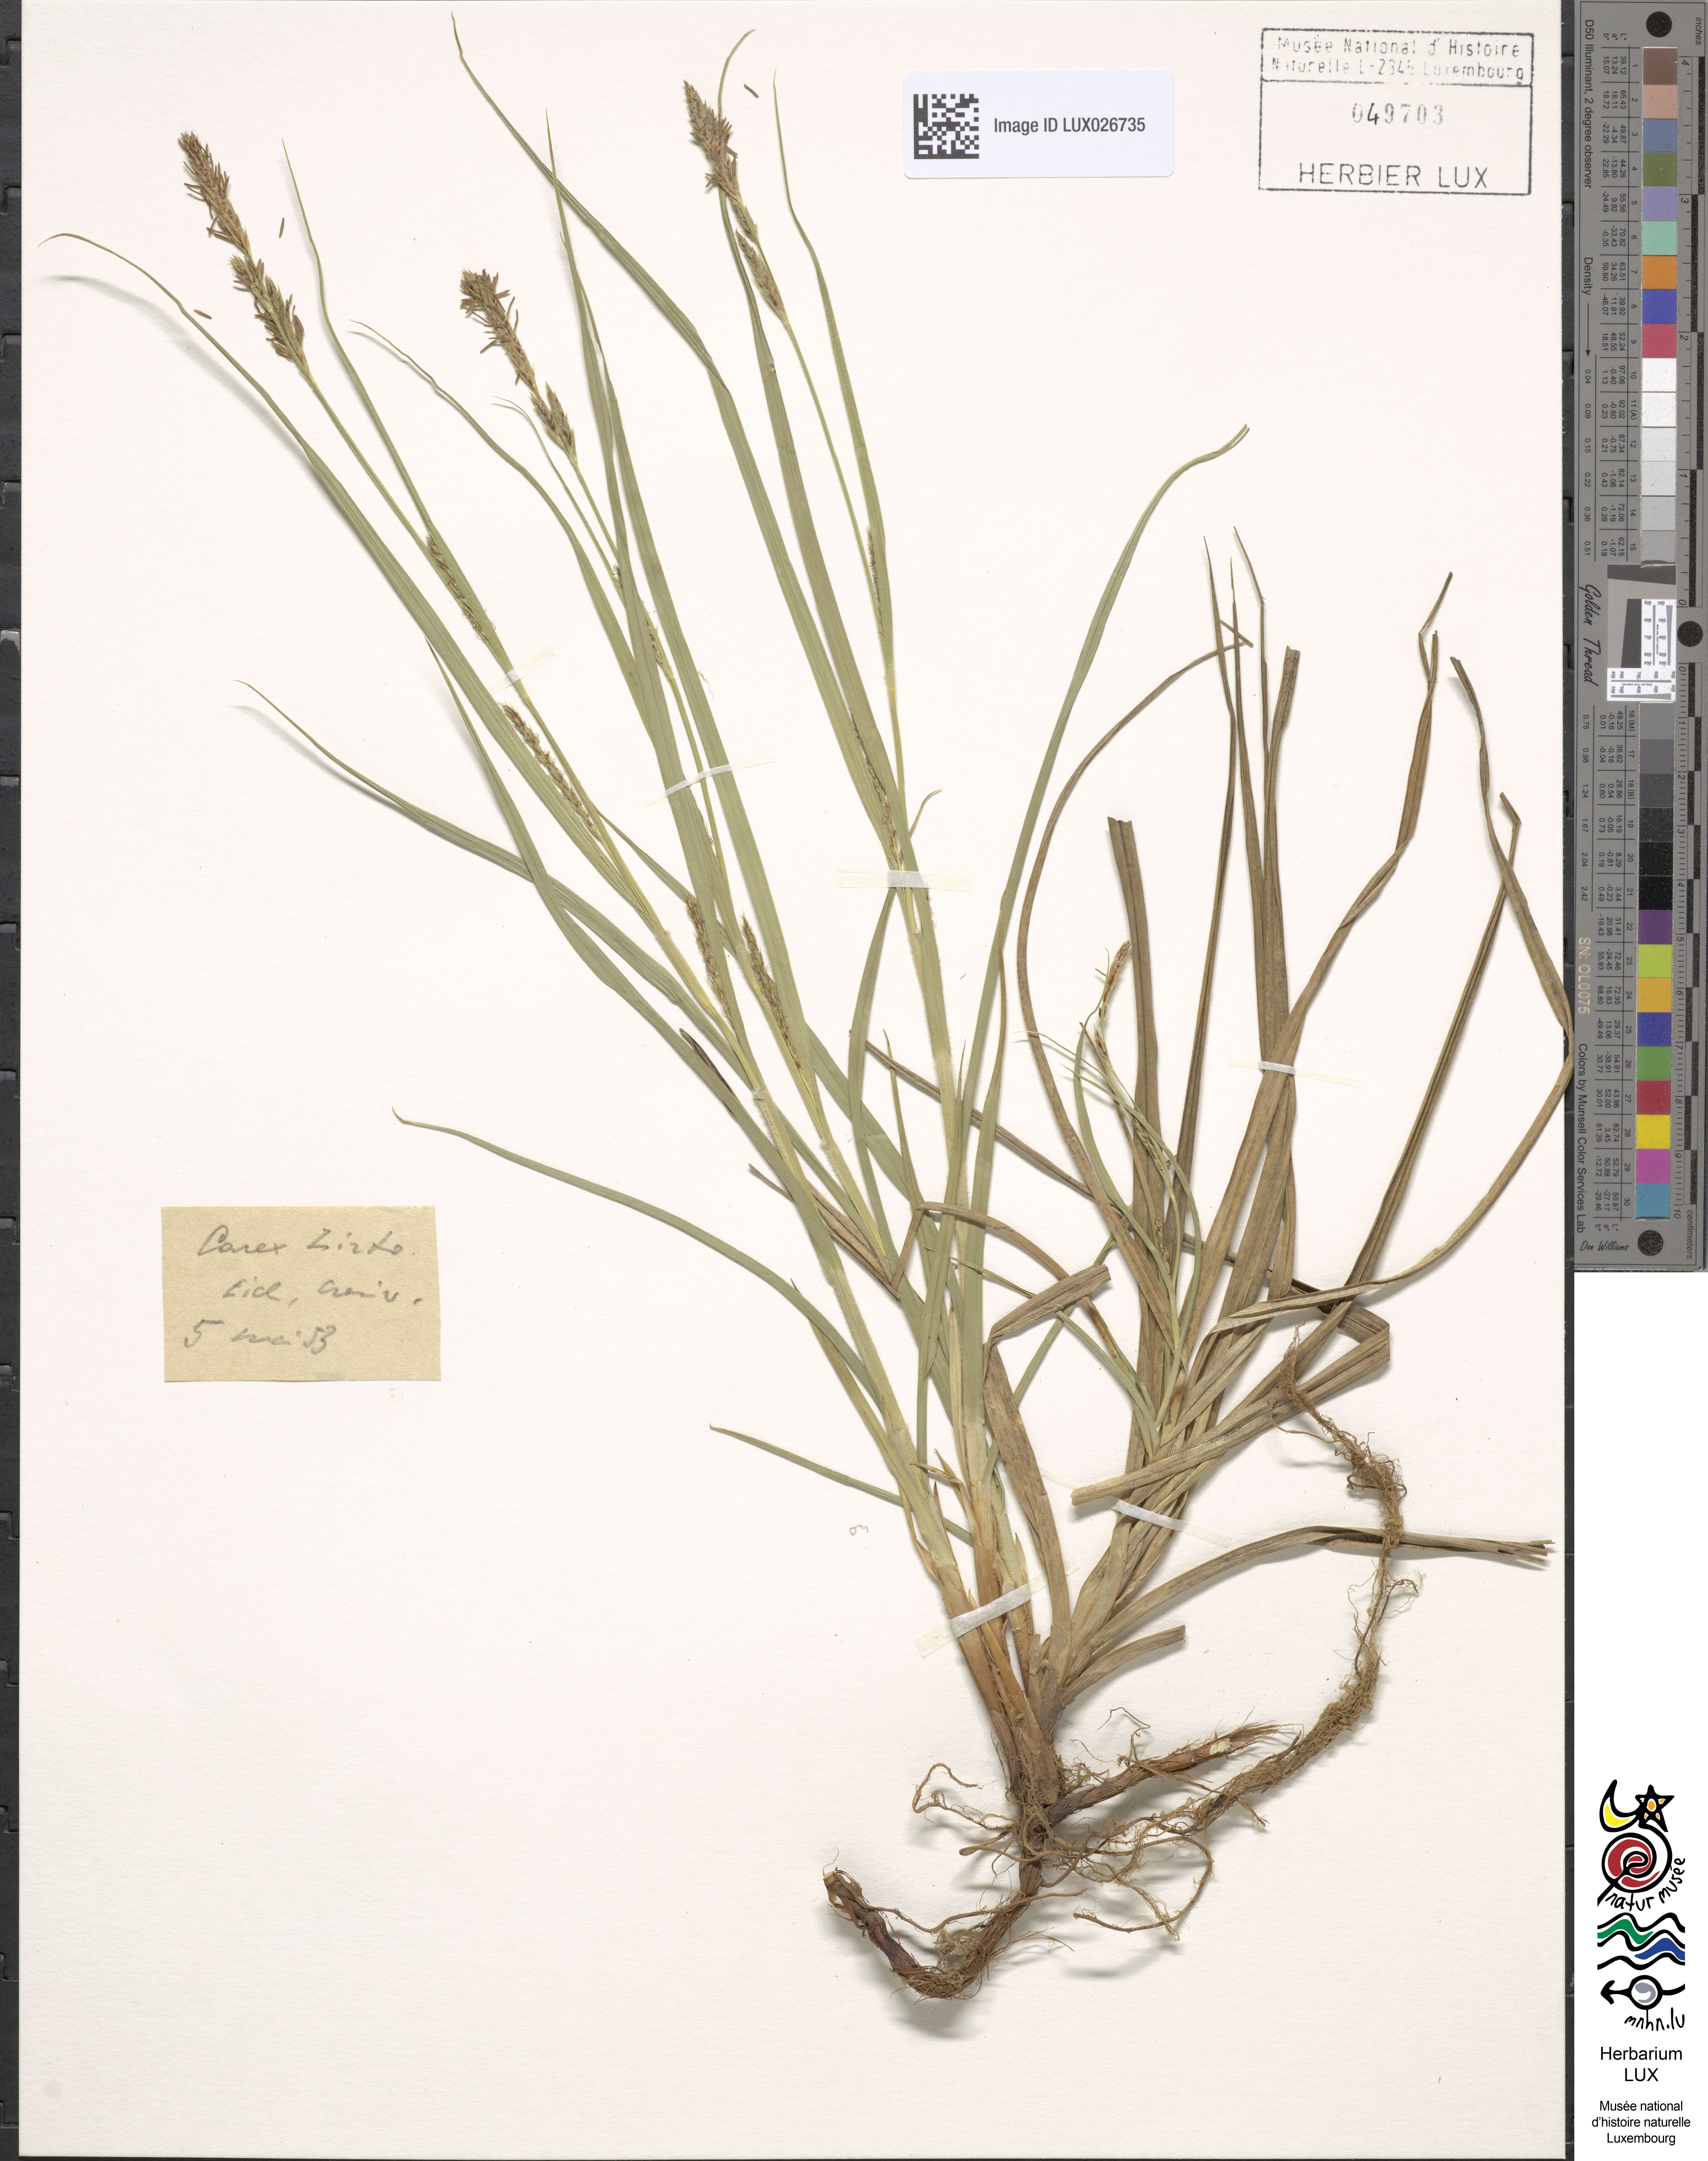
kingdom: Plantae
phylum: Tracheophyta
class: Liliopsida
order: Poales
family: Cyperaceae
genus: Carex
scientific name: Carex hirta
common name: Hairy sedge
